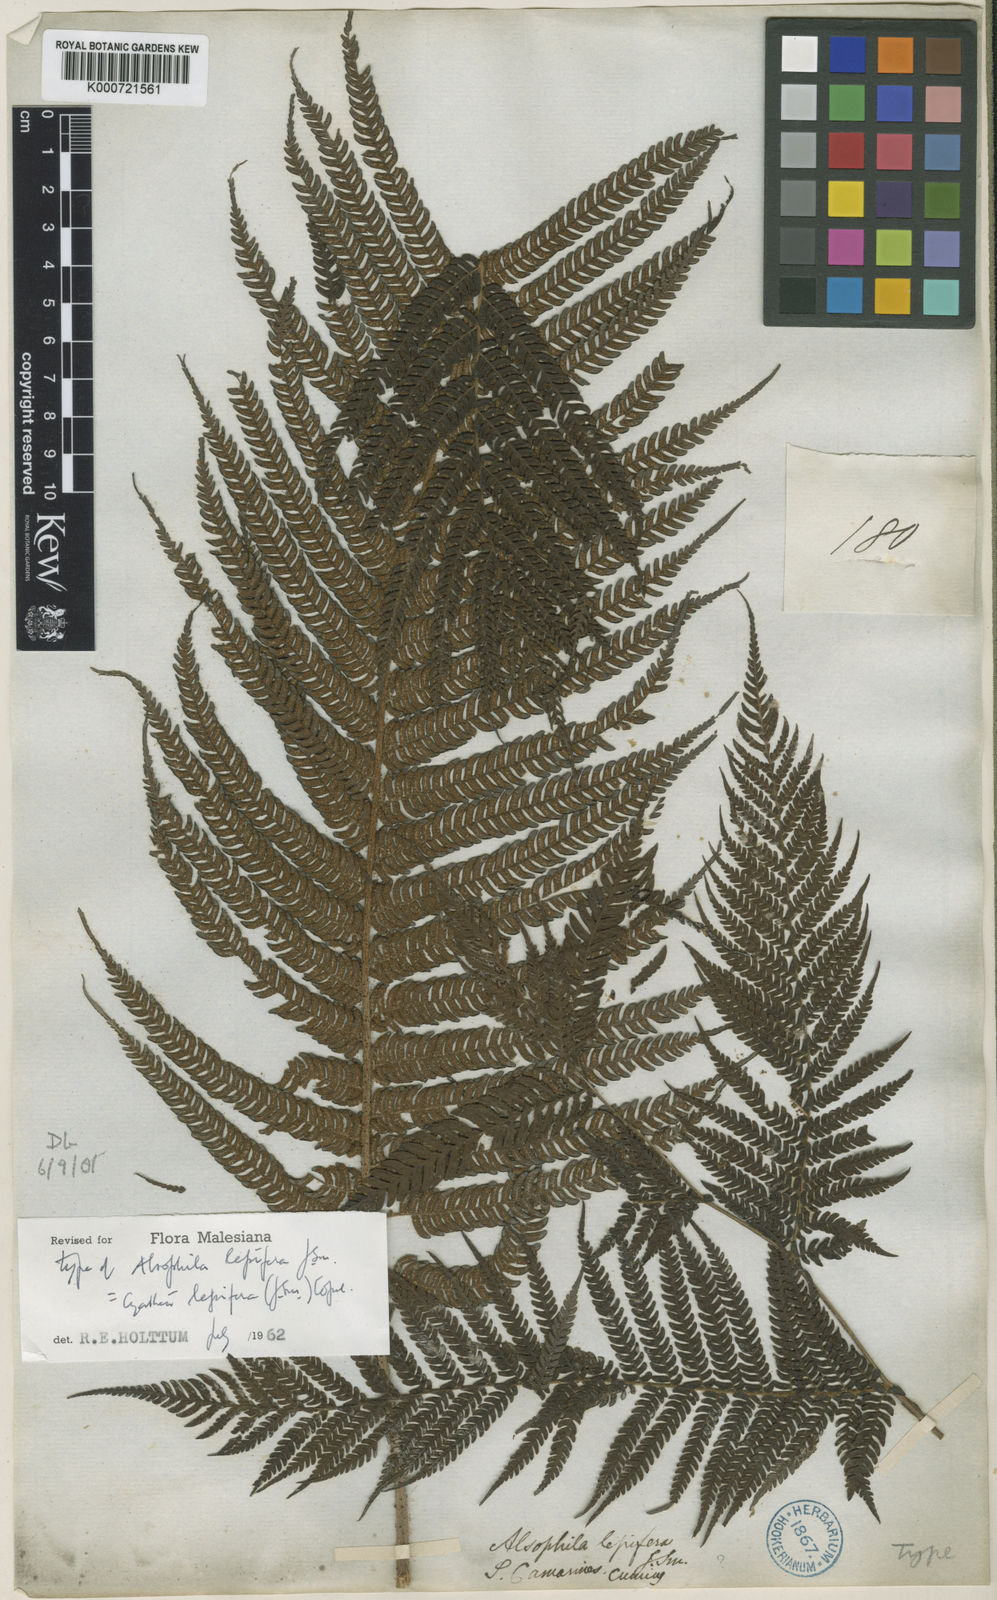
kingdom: Plantae
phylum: Tracheophyta
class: Polypodiopsida
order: Cyatheales
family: Cyatheaceae
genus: Alsophila
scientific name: Alsophila lepifera
